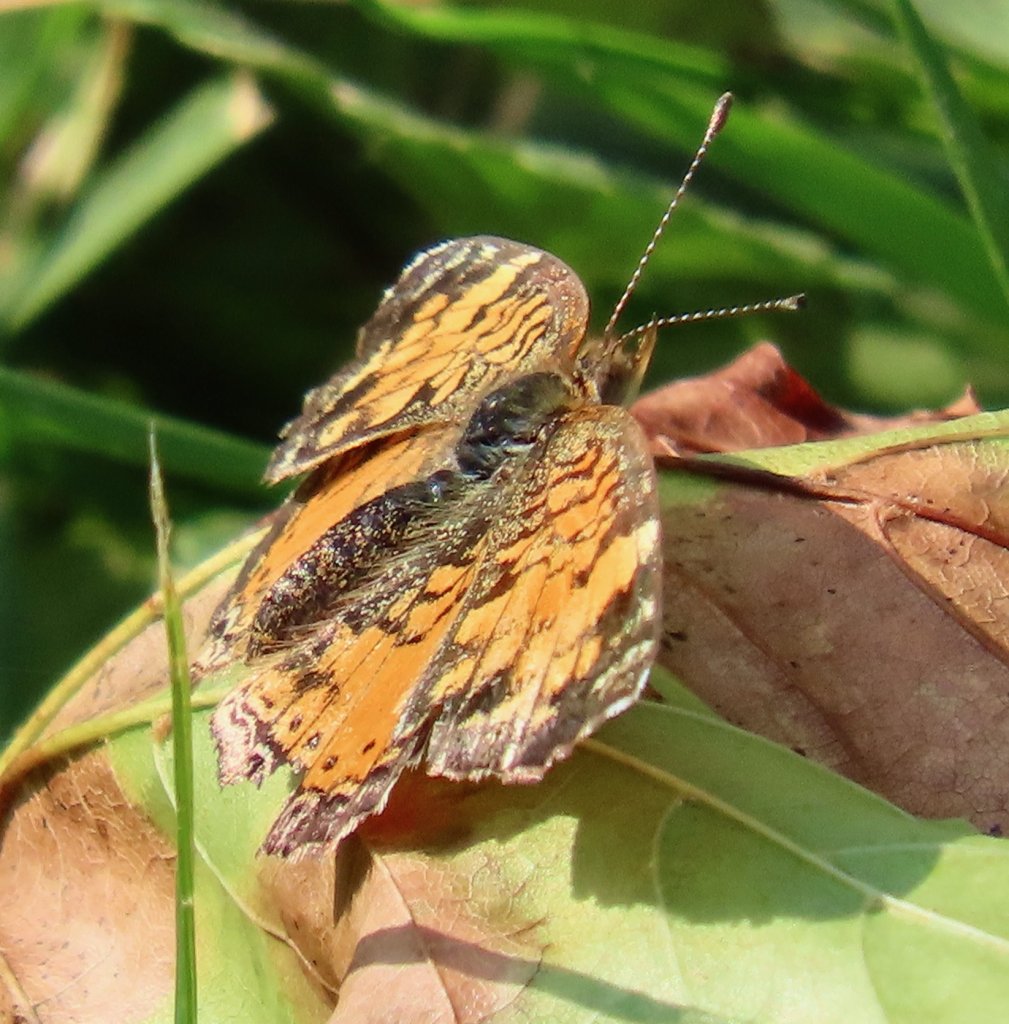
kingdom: Animalia
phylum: Arthropoda
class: Insecta
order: Lepidoptera
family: Nymphalidae
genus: Phyciodes
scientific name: Phyciodes tharos
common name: Pearl Crescent
